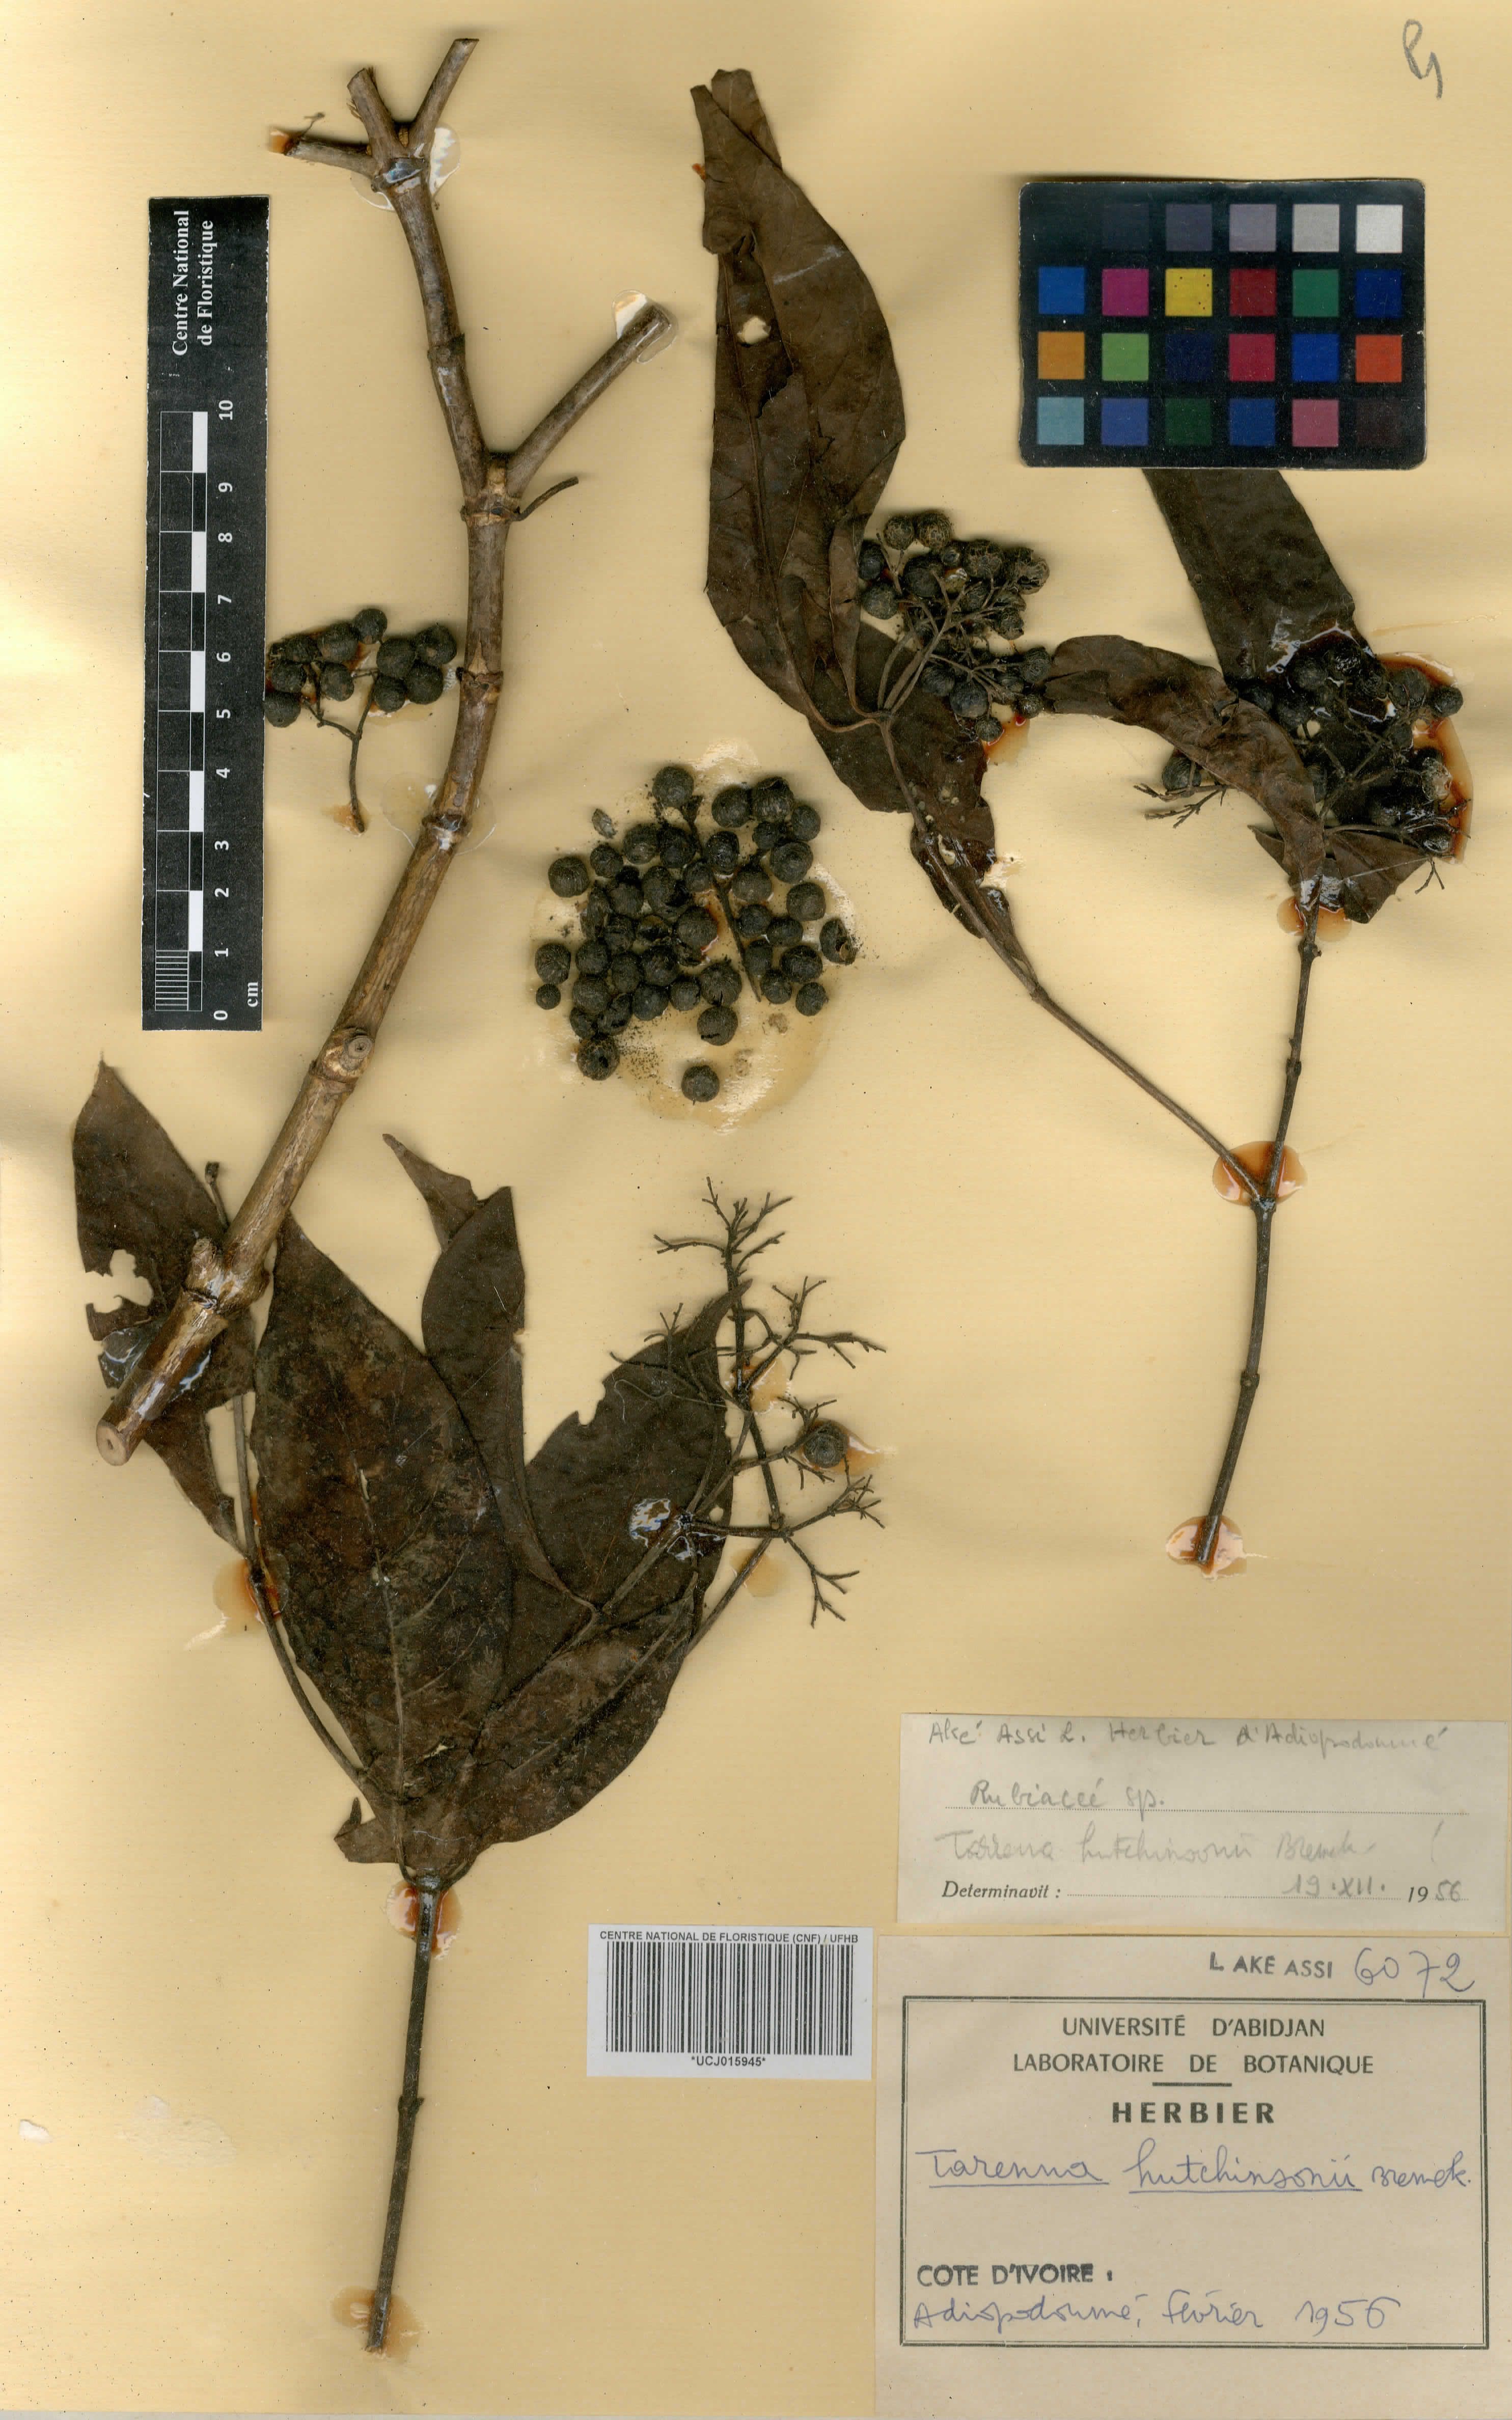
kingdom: Plantae
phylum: Tracheophyta
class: Magnoliopsida
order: Gentianales
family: Rubiaceae
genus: Tarenna
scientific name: Tarenna hutchinsonii
